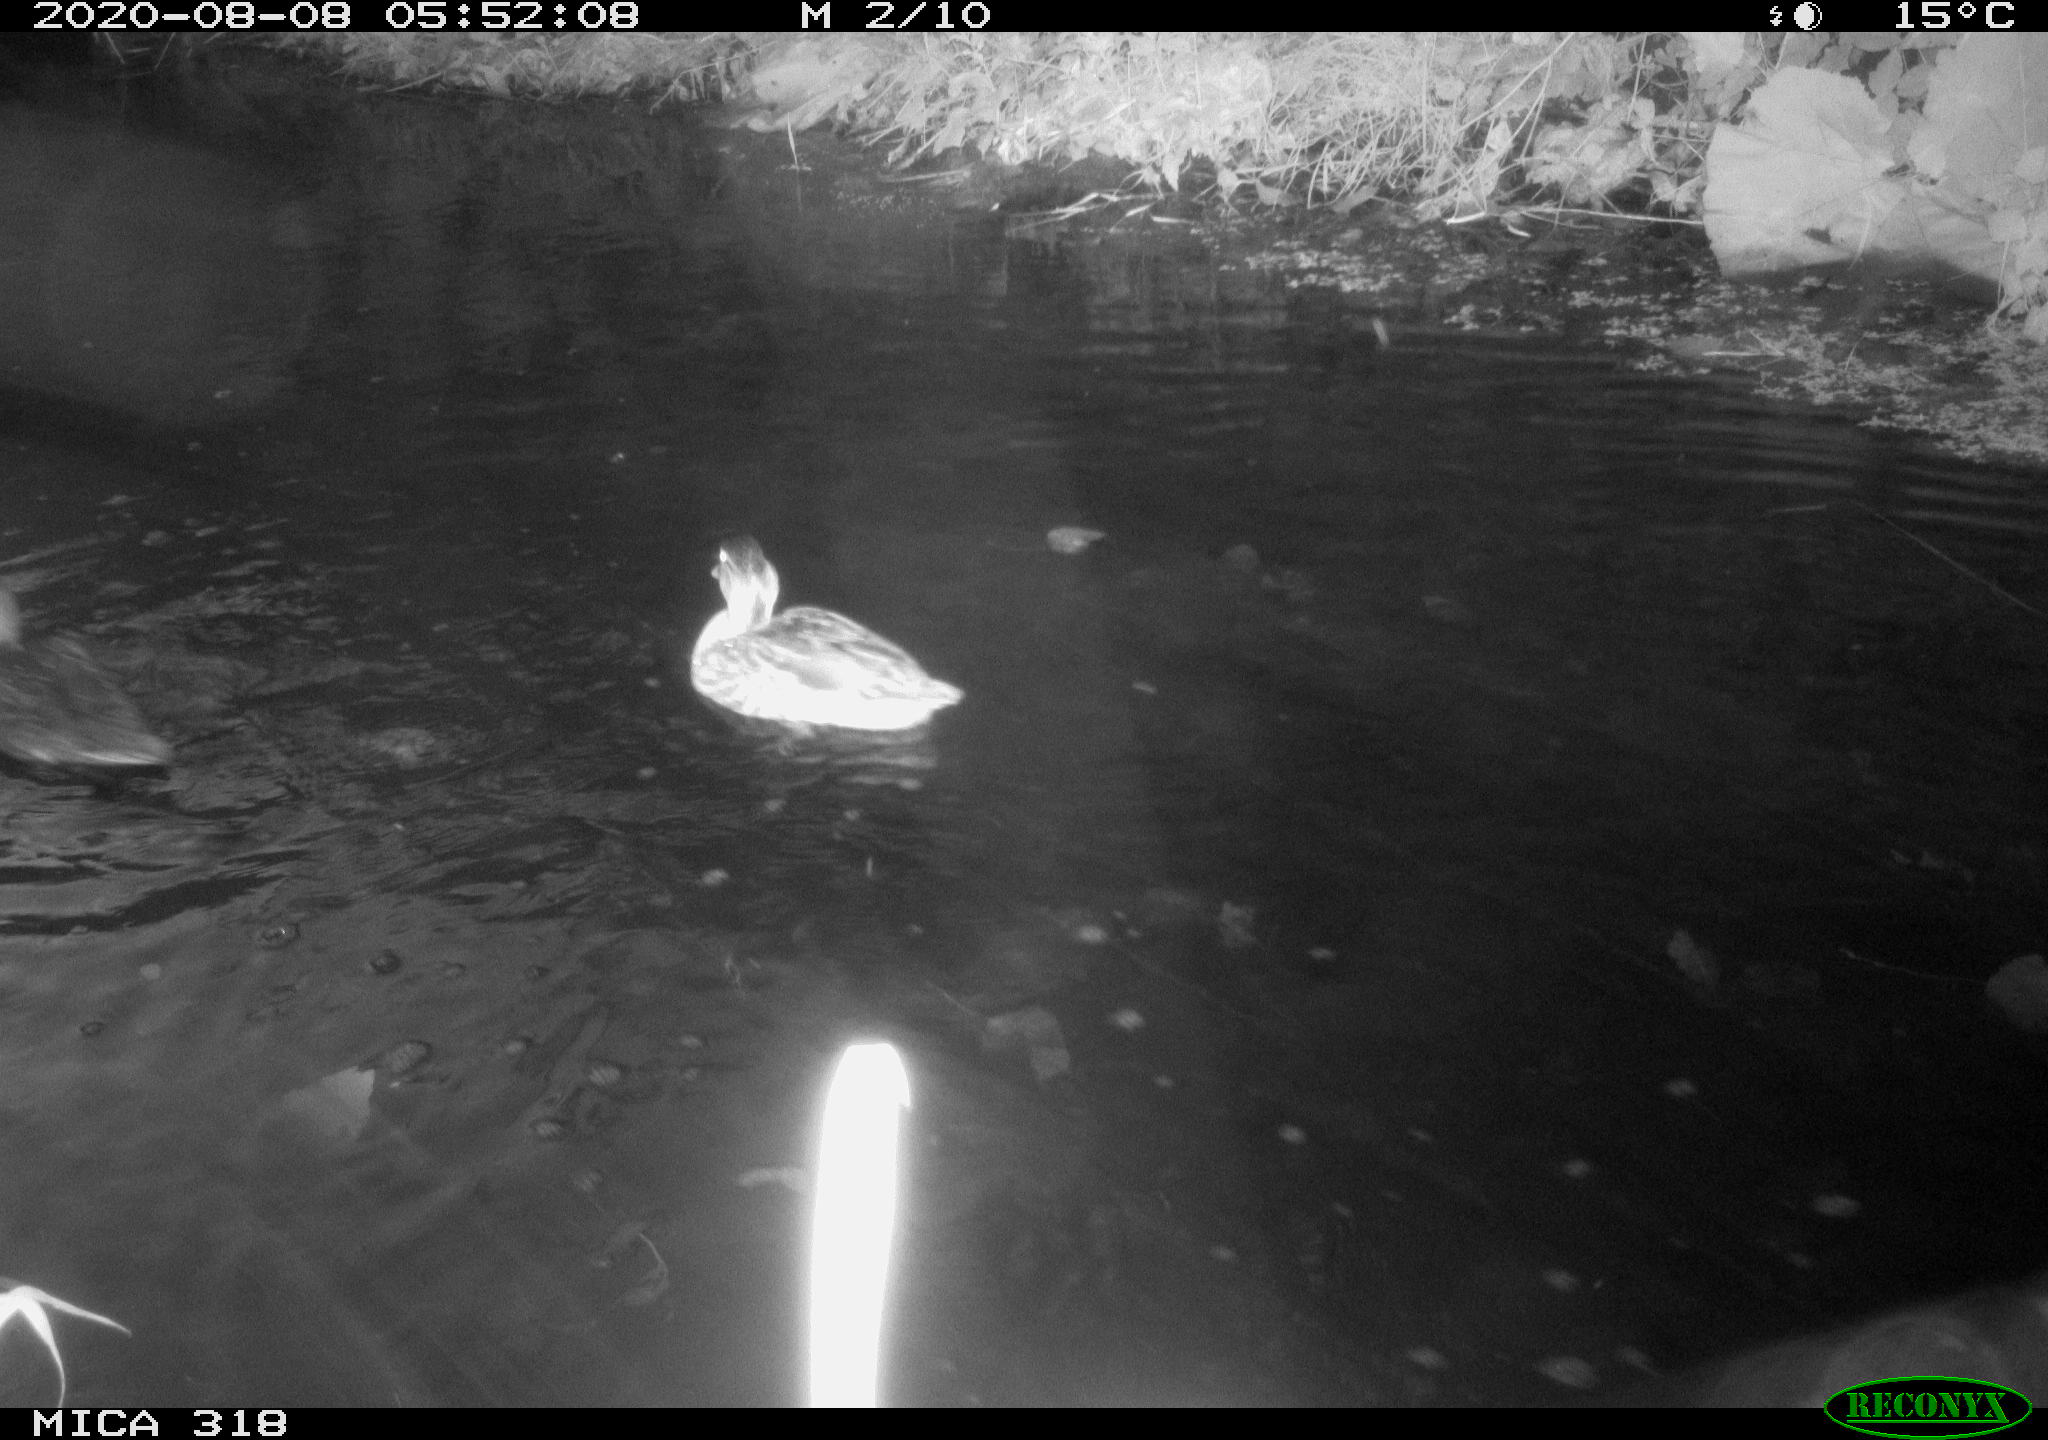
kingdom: Animalia
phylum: Chordata
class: Aves
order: Anseriformes
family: Anatidae
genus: Anas
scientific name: Anas platyrhynchos
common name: Mallard
